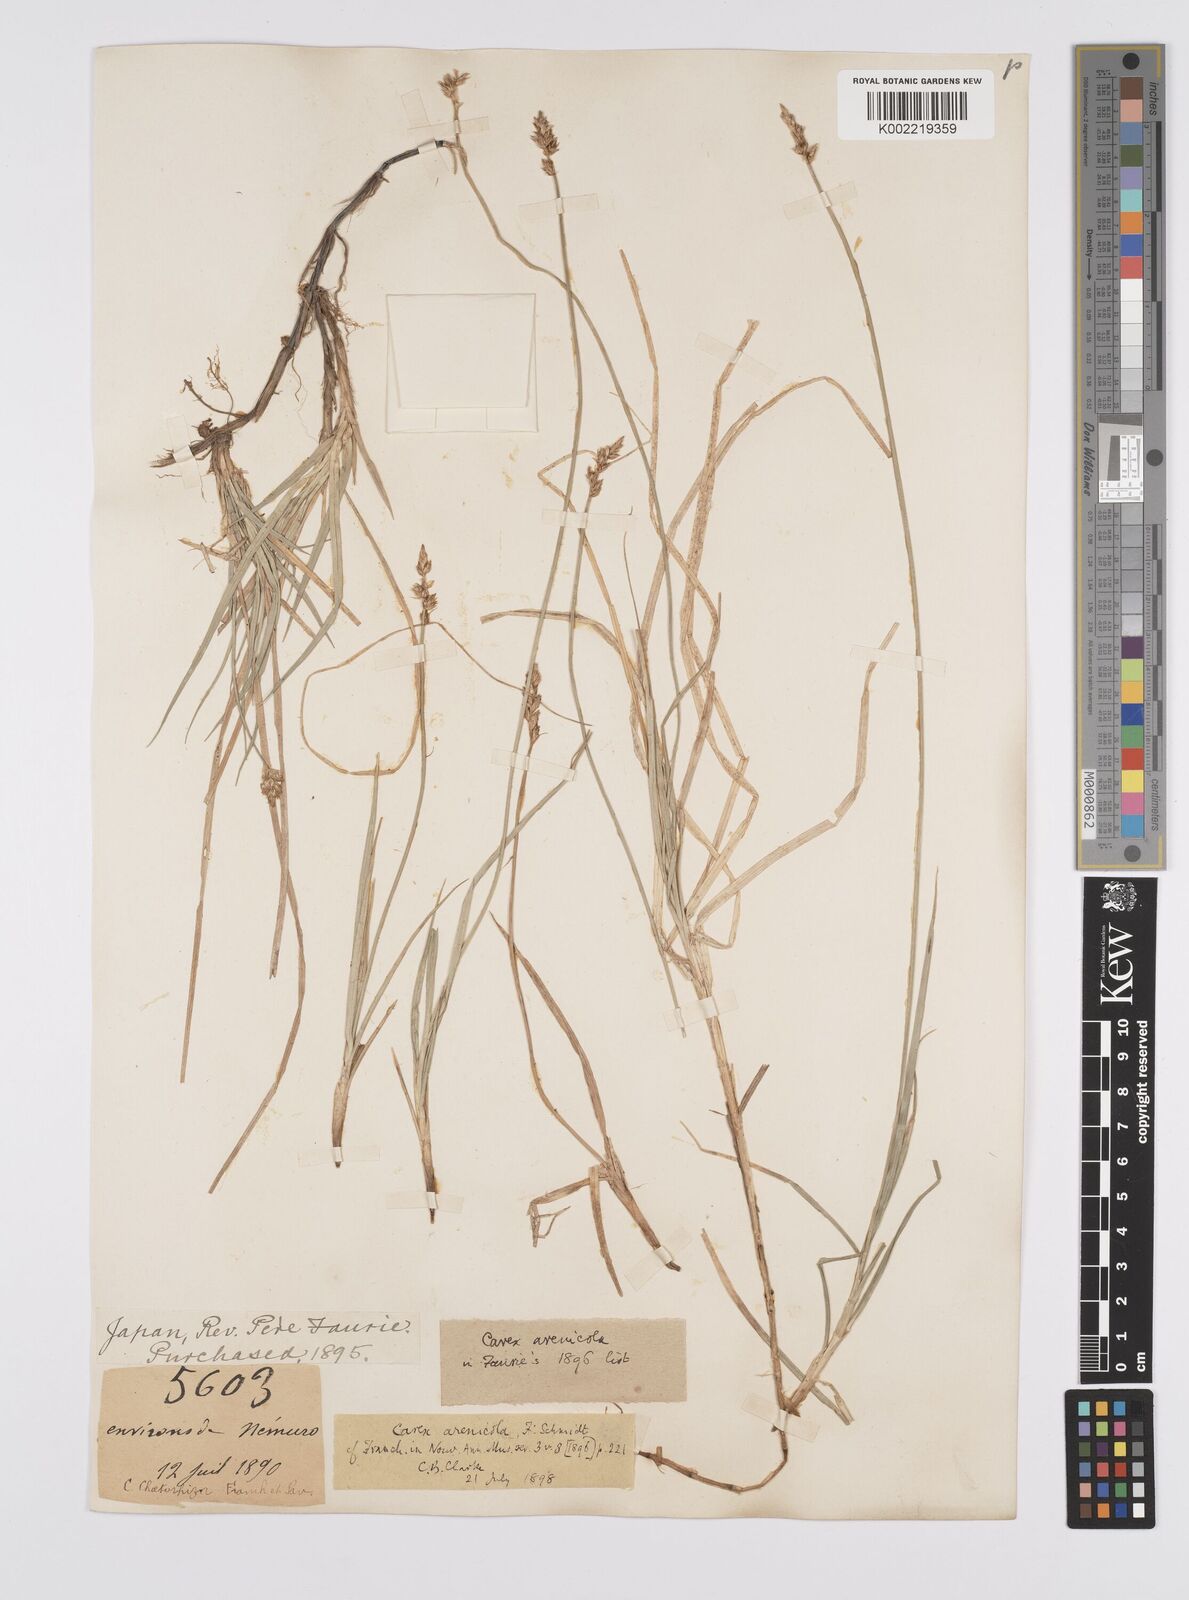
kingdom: Plantae
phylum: Tracheophyta
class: Liliopsida
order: Poales
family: Cyperaceae
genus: Carex
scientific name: Carex arenicola
